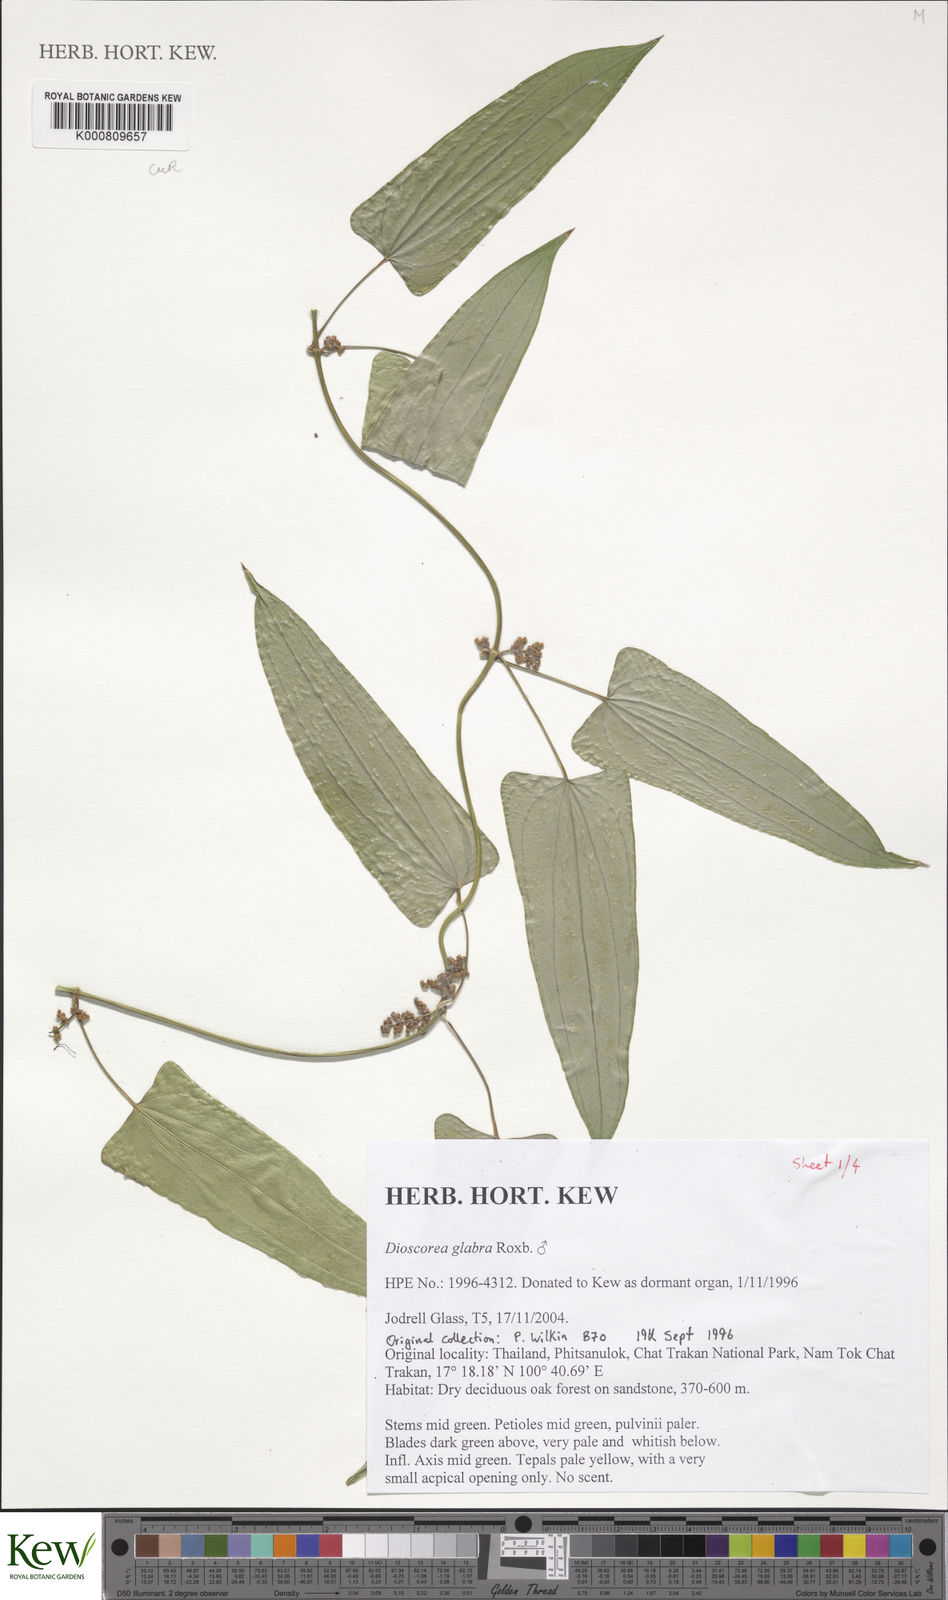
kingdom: Plantae
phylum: Tracheophyta
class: Liliopsida
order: Dioscoreales
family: Dioscoreaceae
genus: Dioscorea
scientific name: Dioscorea glabra
